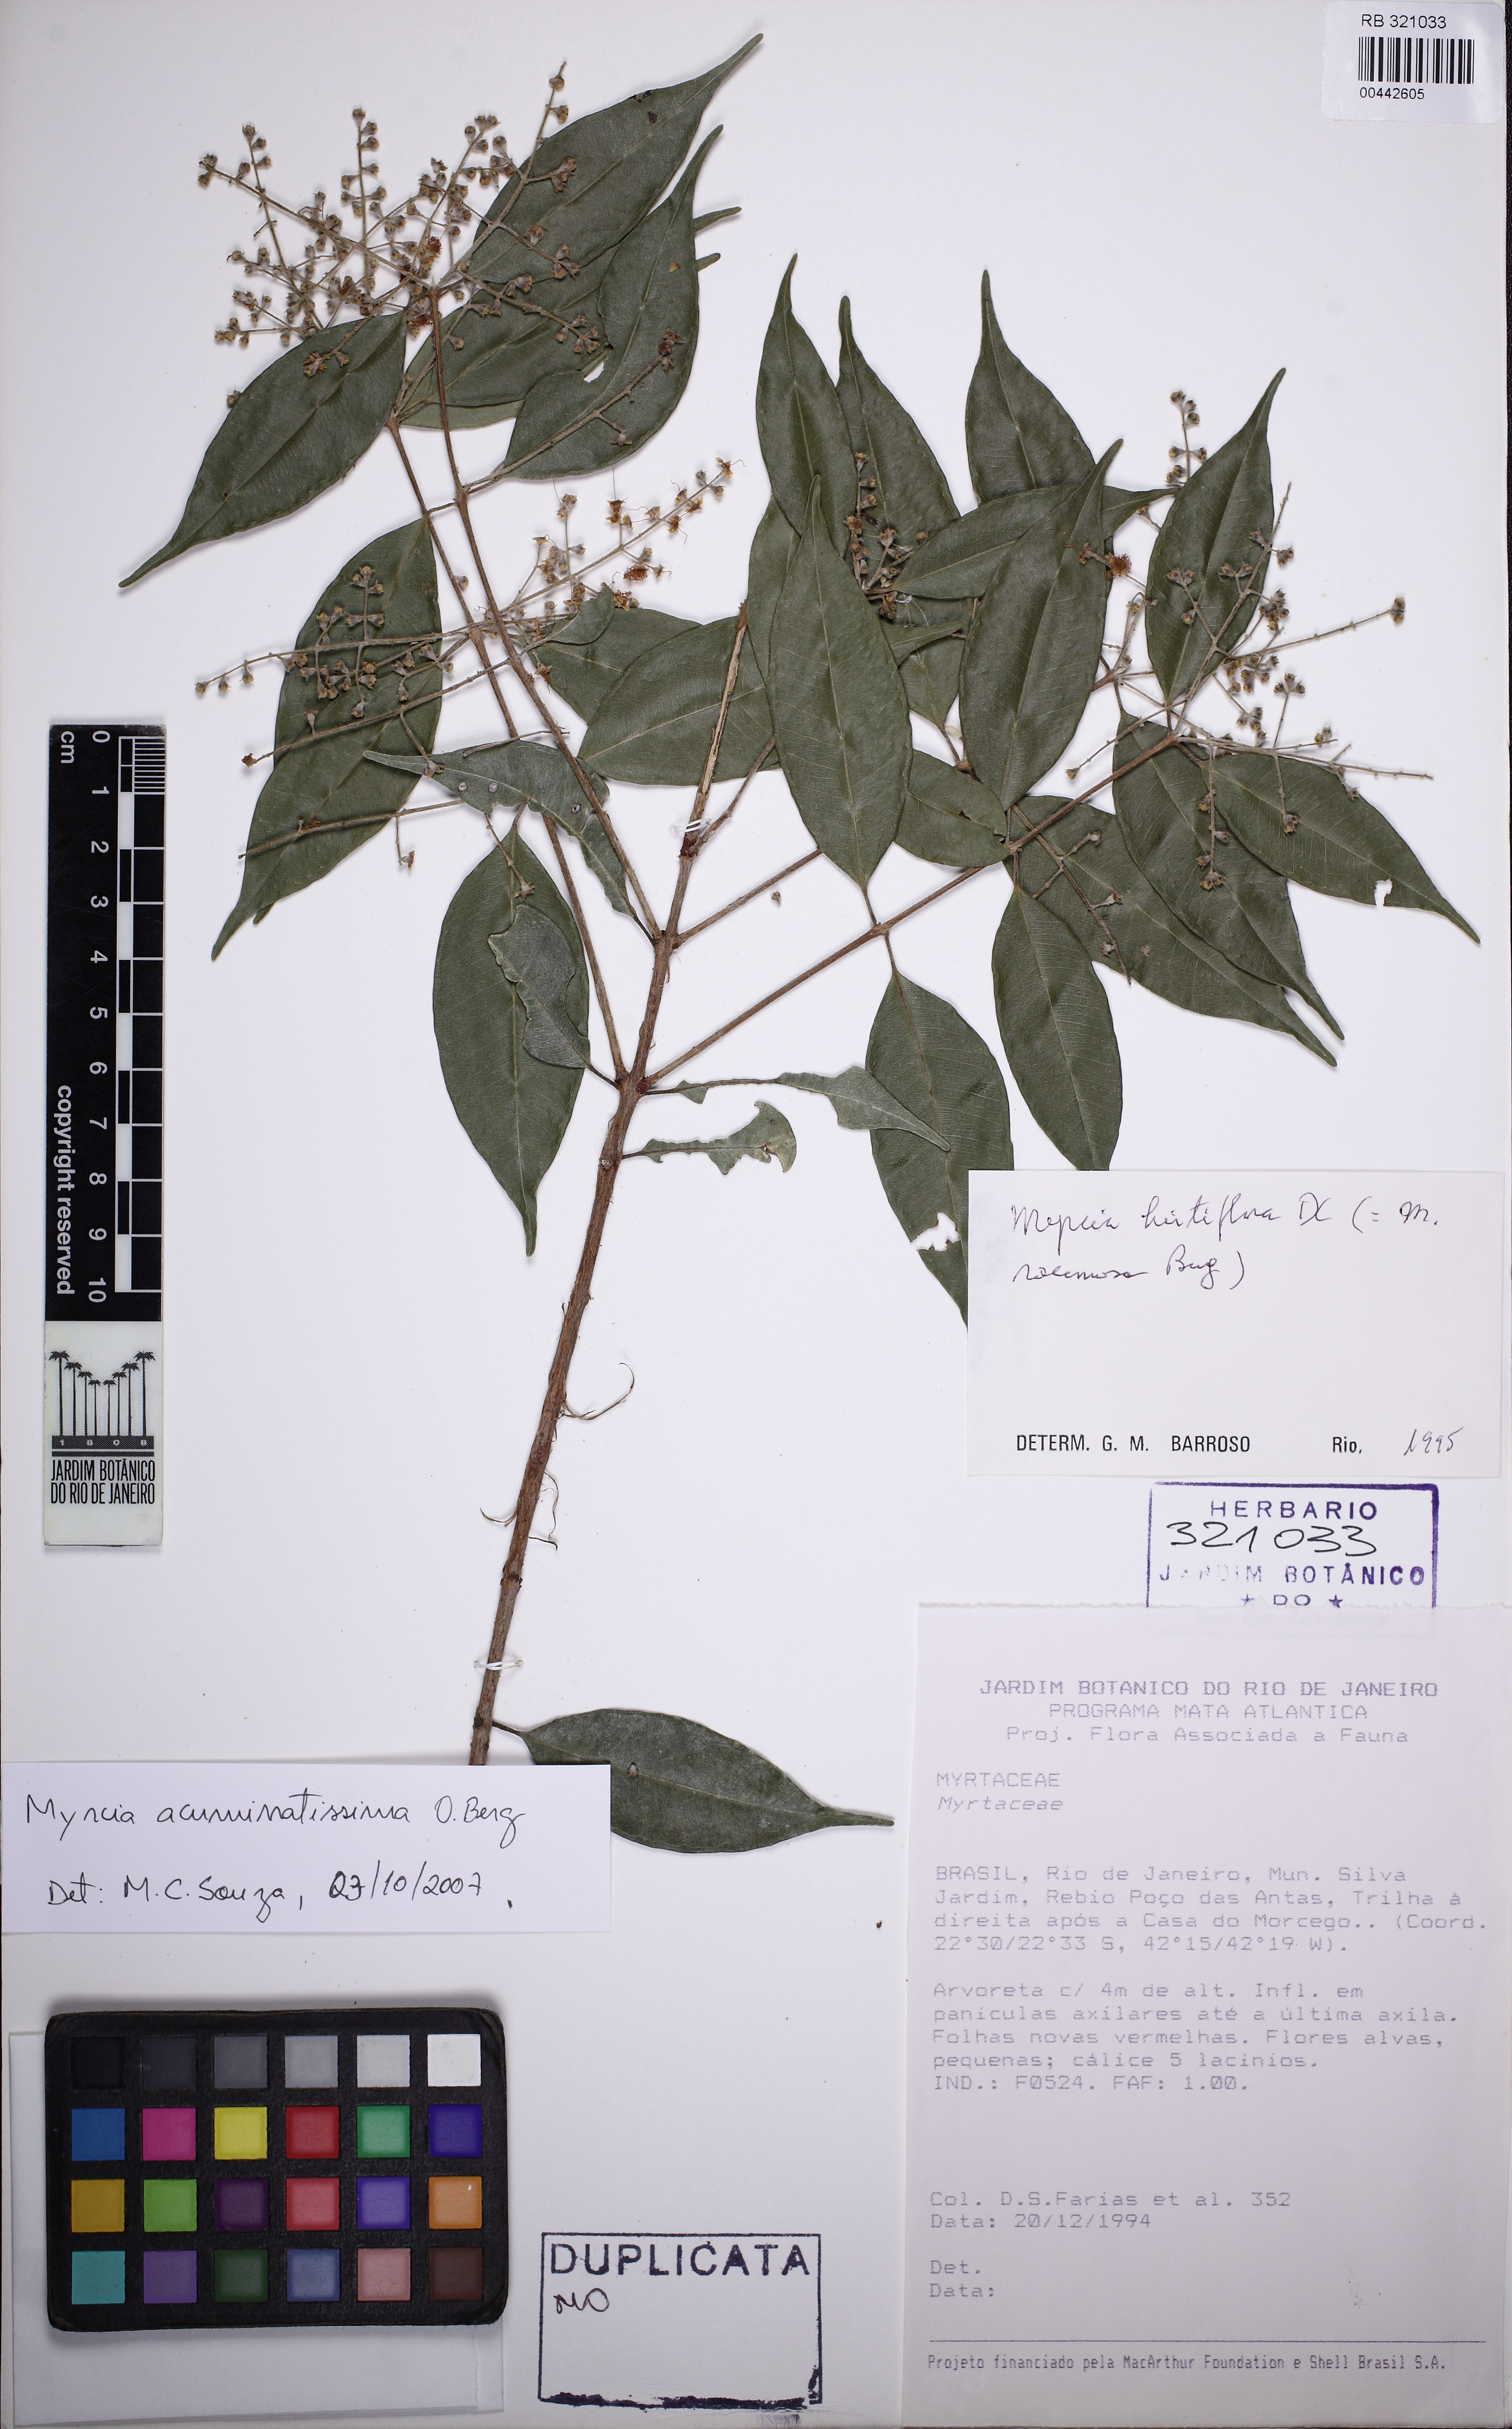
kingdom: Plantae
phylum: Tracheophyta
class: Magnoliopsida
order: Myrtales
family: Myrtaceae
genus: Myrcia
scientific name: Myrcia racemosa
